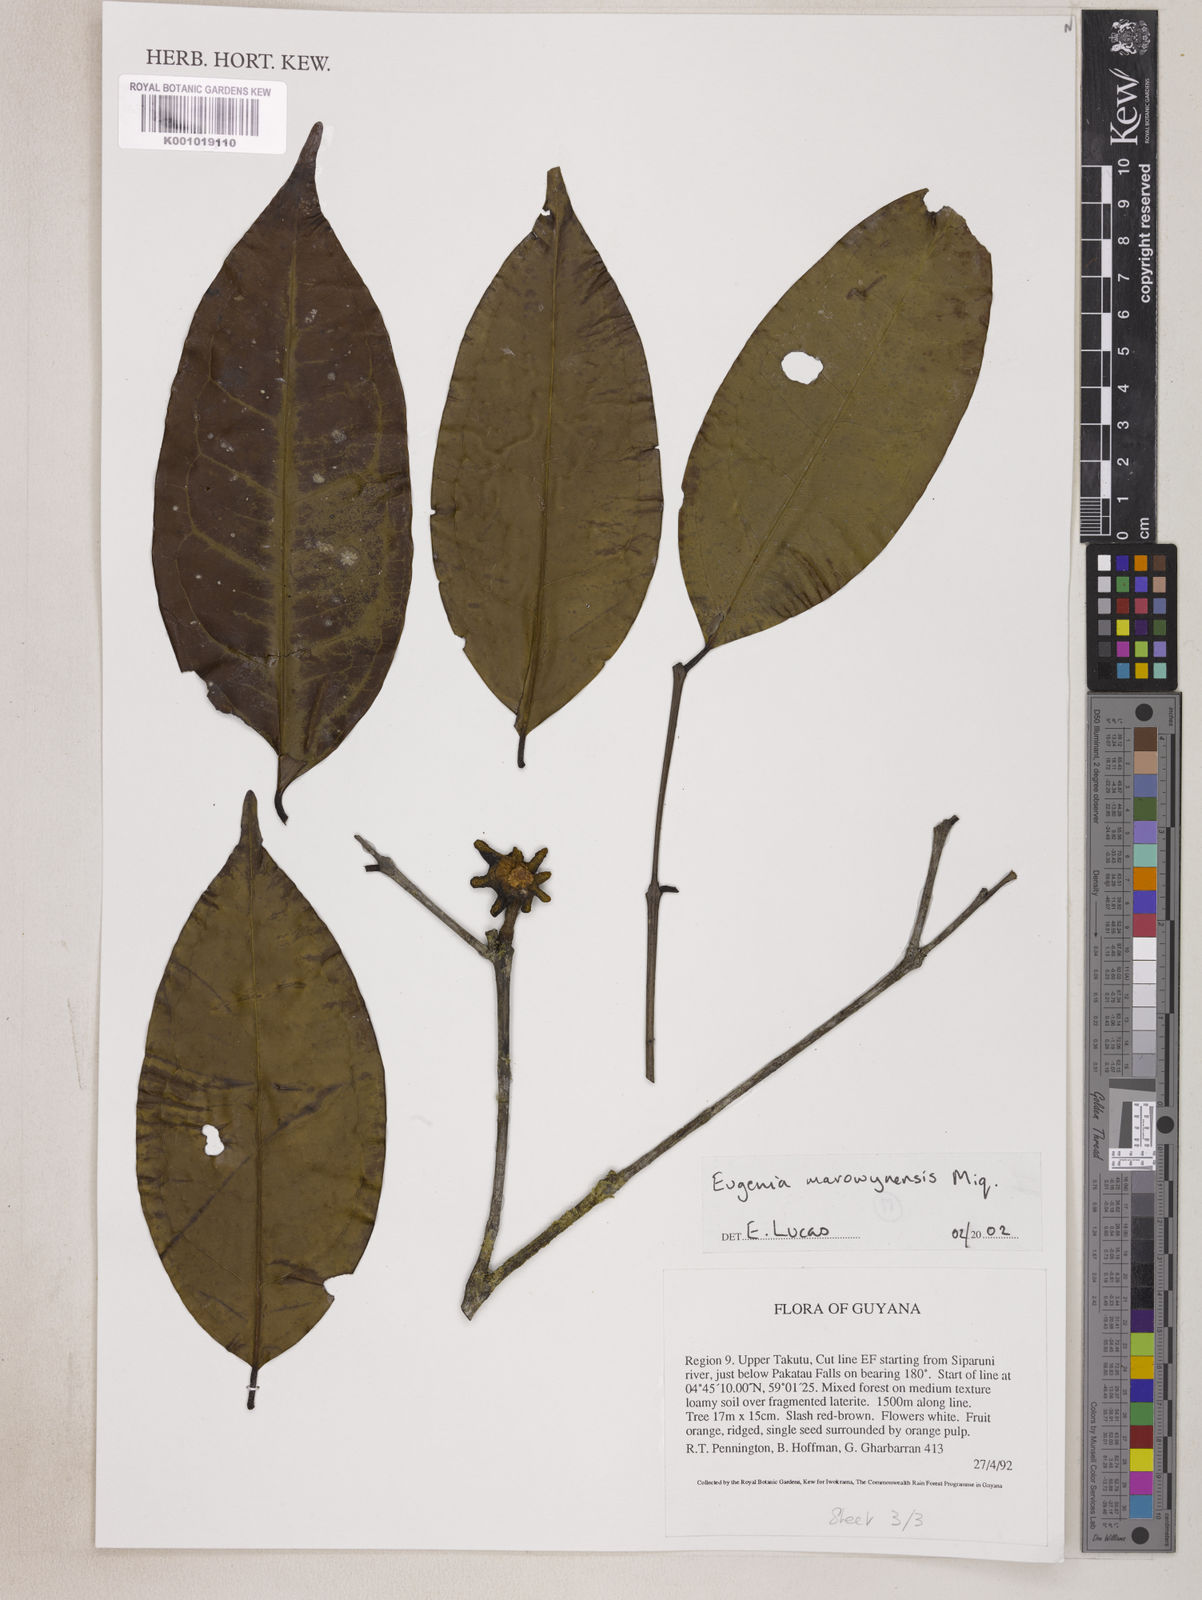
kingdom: Plantae
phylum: Tracheophyta
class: Magnoliopsida
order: Myrtales
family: Myrtaceae
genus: Eugenia
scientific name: Eugenia marowynensis
